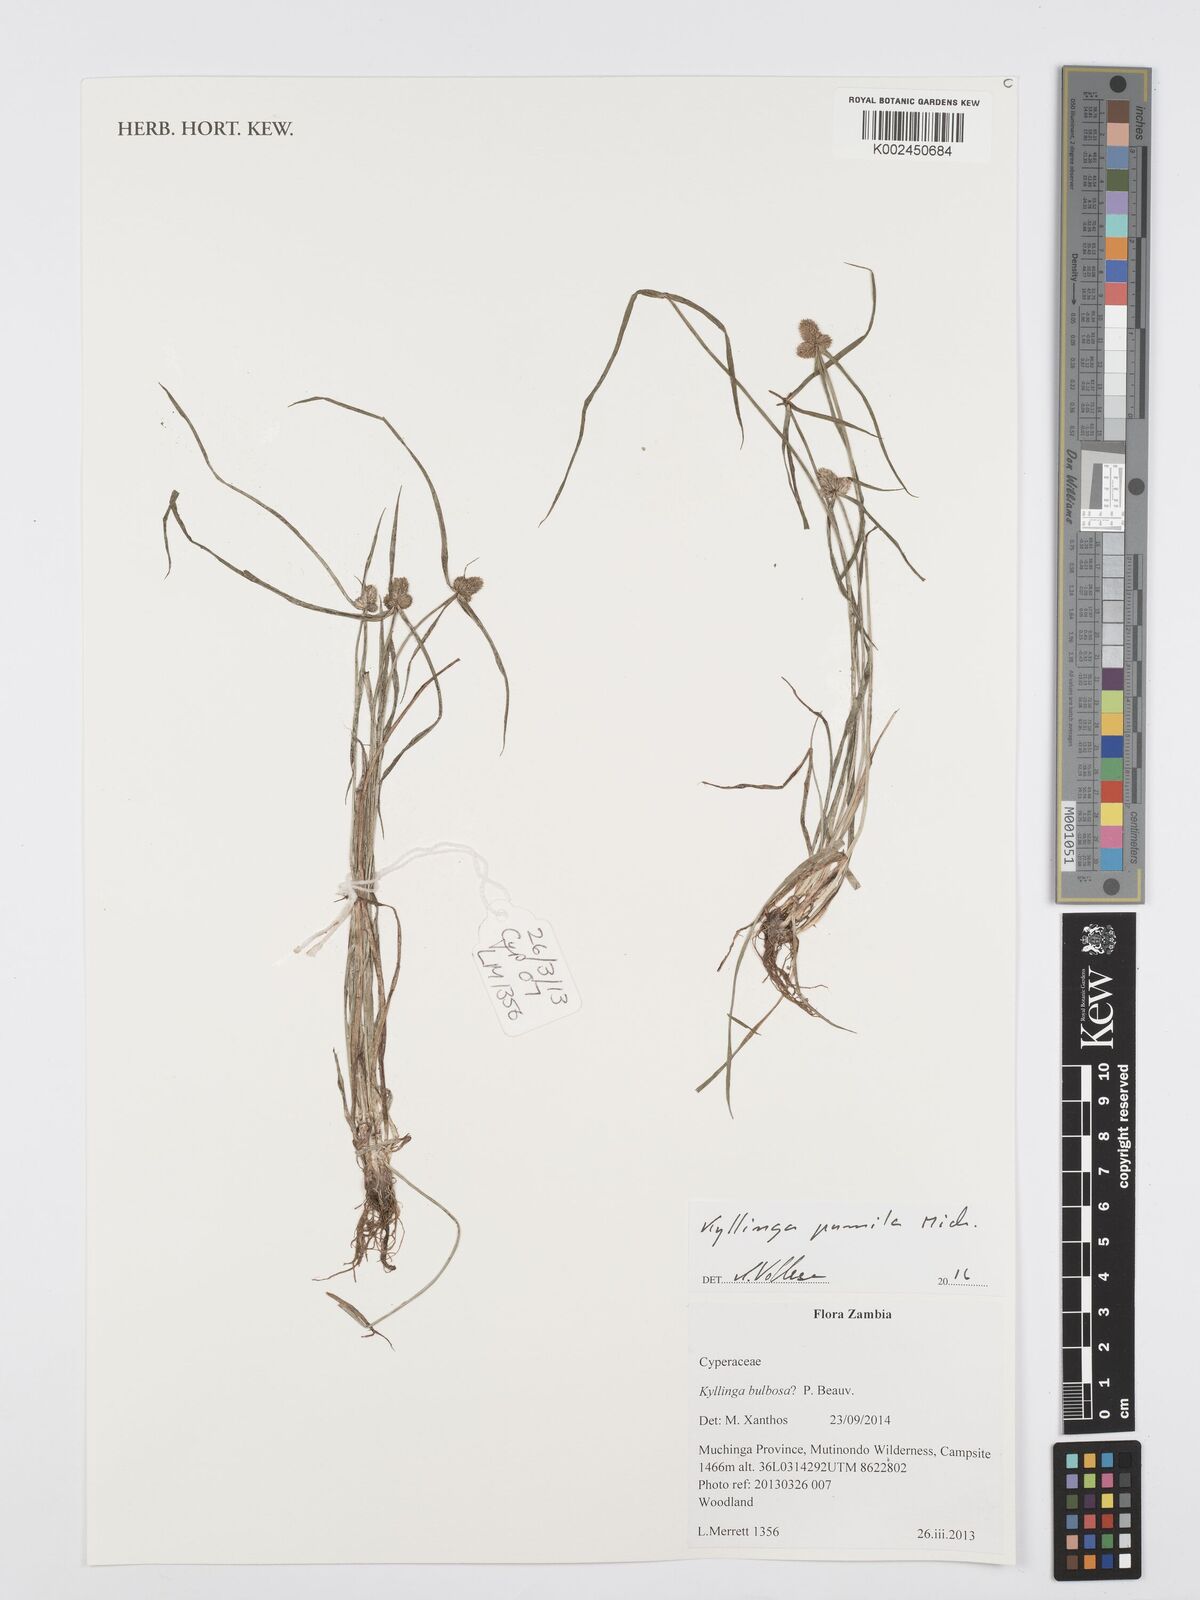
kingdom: Plantae
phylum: Tracheophyta
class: Liliopsida
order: Poales
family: Cyperaceae
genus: Cyperus
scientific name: Cyperus pumilus
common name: Low flatsedge
